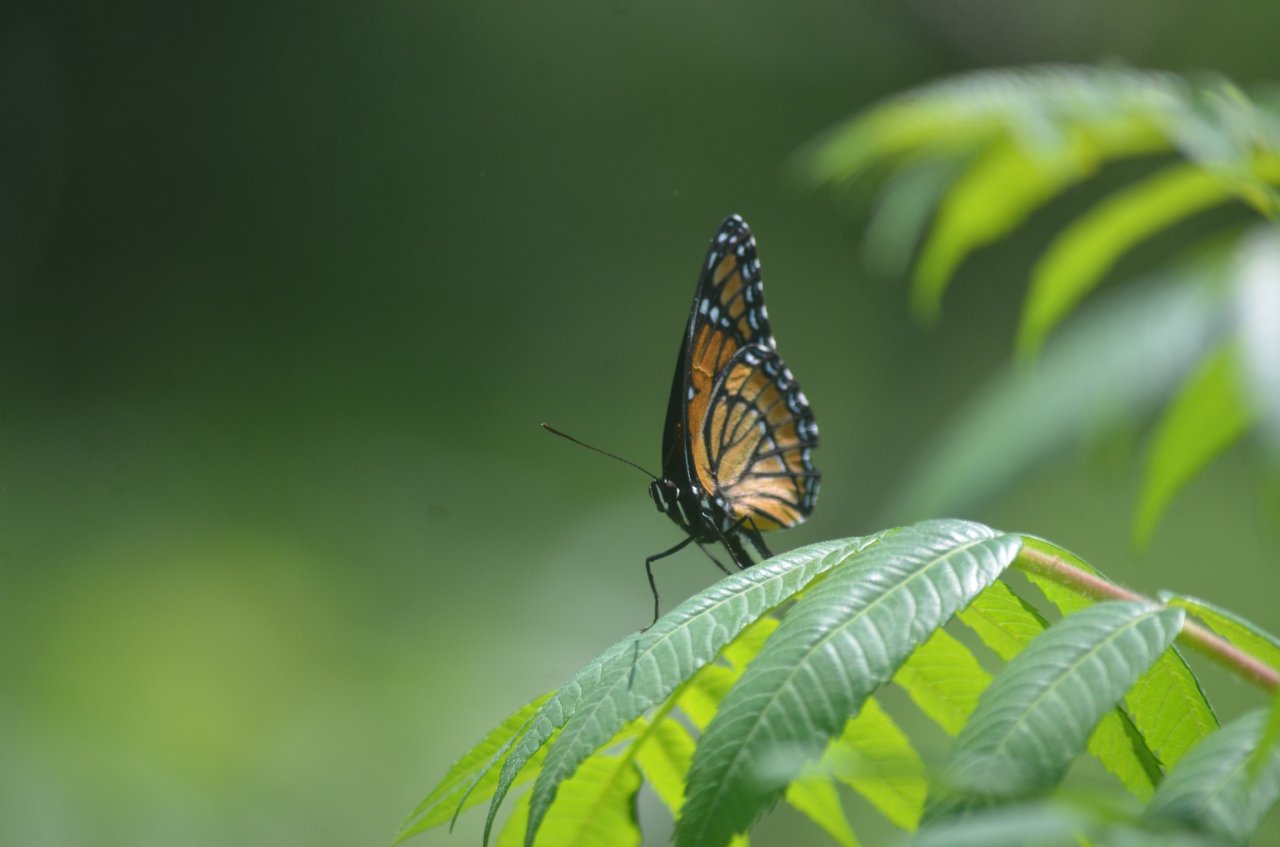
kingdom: Animalia
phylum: Arthropoda
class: Insecta
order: Lepidoptera
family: Nymphalidae
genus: Limenitis
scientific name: Limenitis archippus
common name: Viceroy
